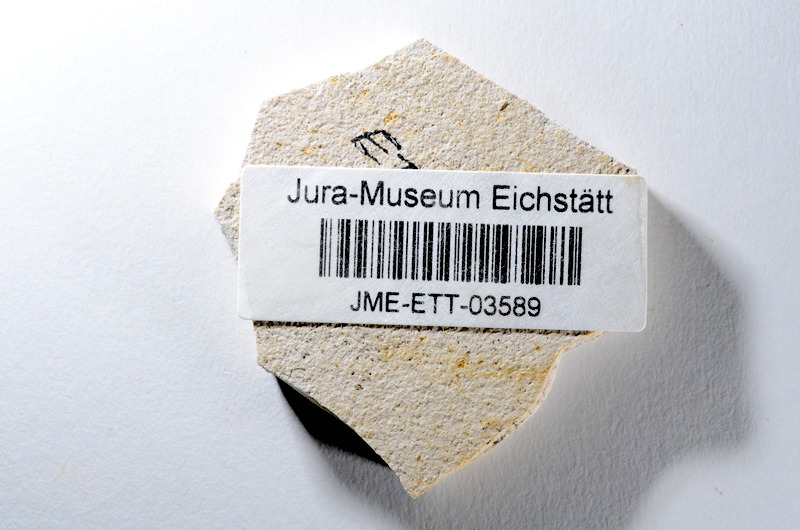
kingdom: Animalia
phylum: Chordata
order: Salmoniformes
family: Orthogonikleithridae
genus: Orthogonikleithrus
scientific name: Orthogonikleithrus hoelli
